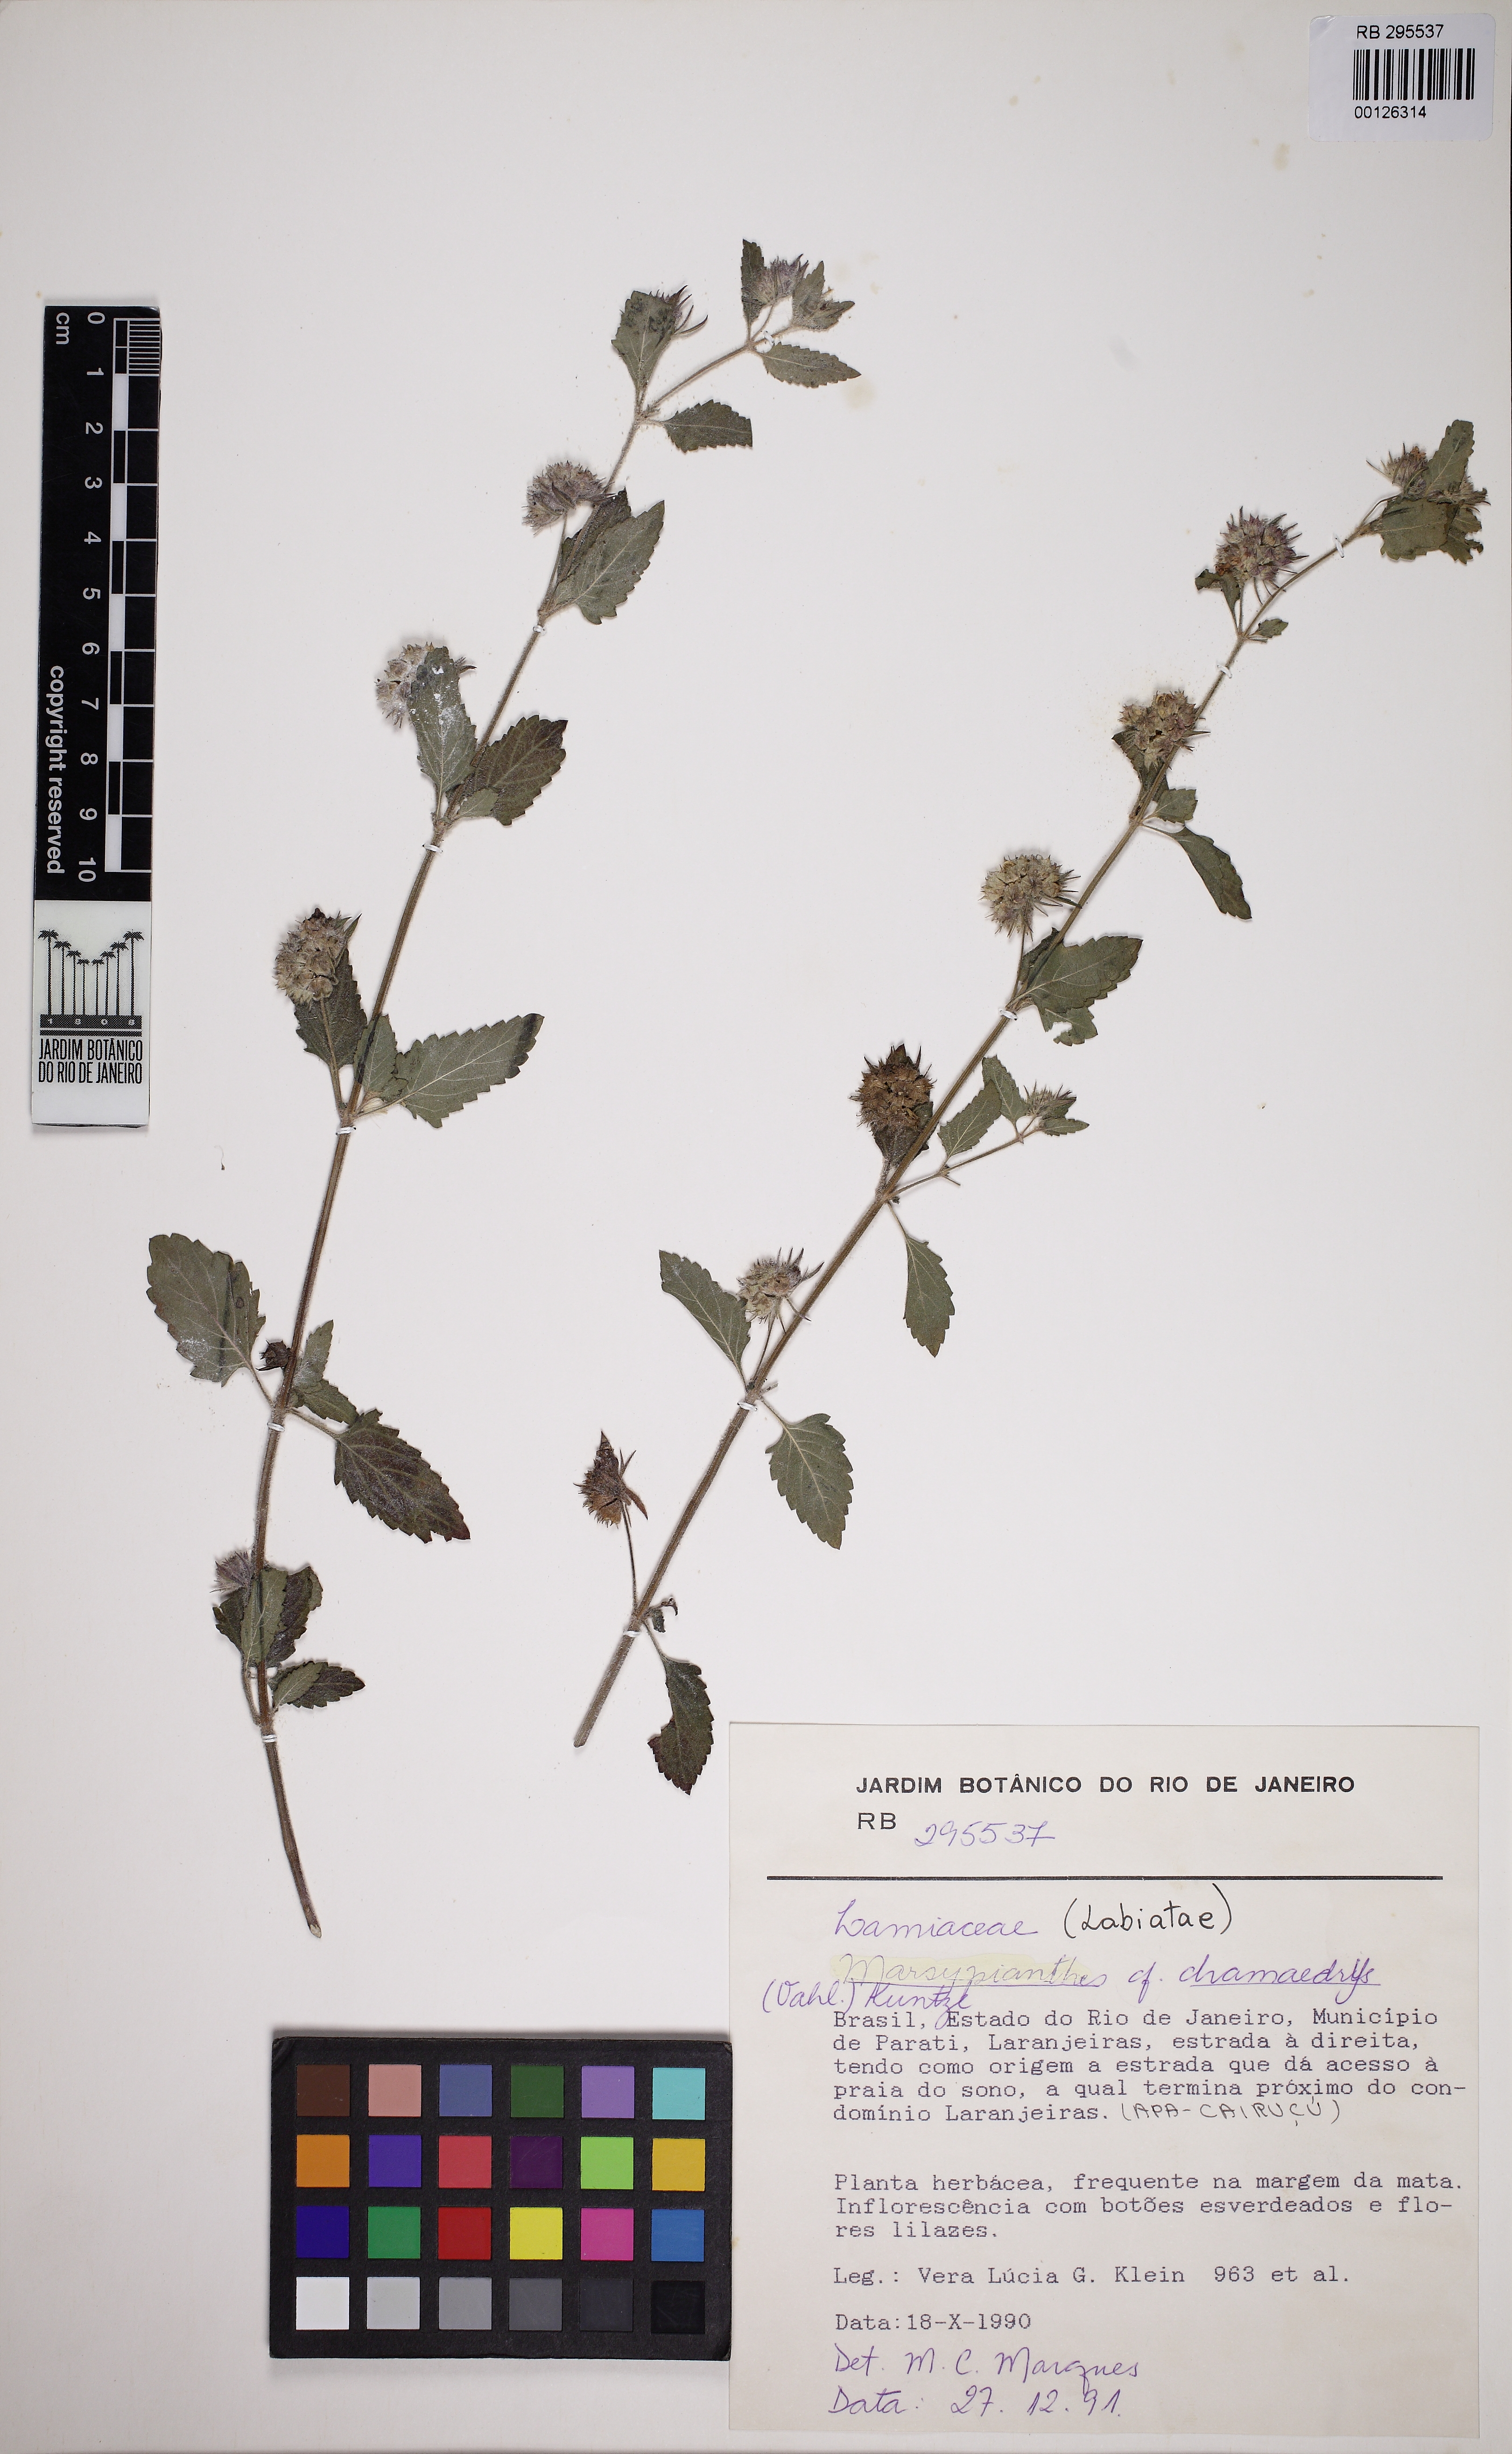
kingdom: Plantae
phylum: Tracheophyta
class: Magnoliopsida
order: Lamiales
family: Lamiaceae
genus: Marsypianthes
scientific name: Marsypianthes chamaedrys
